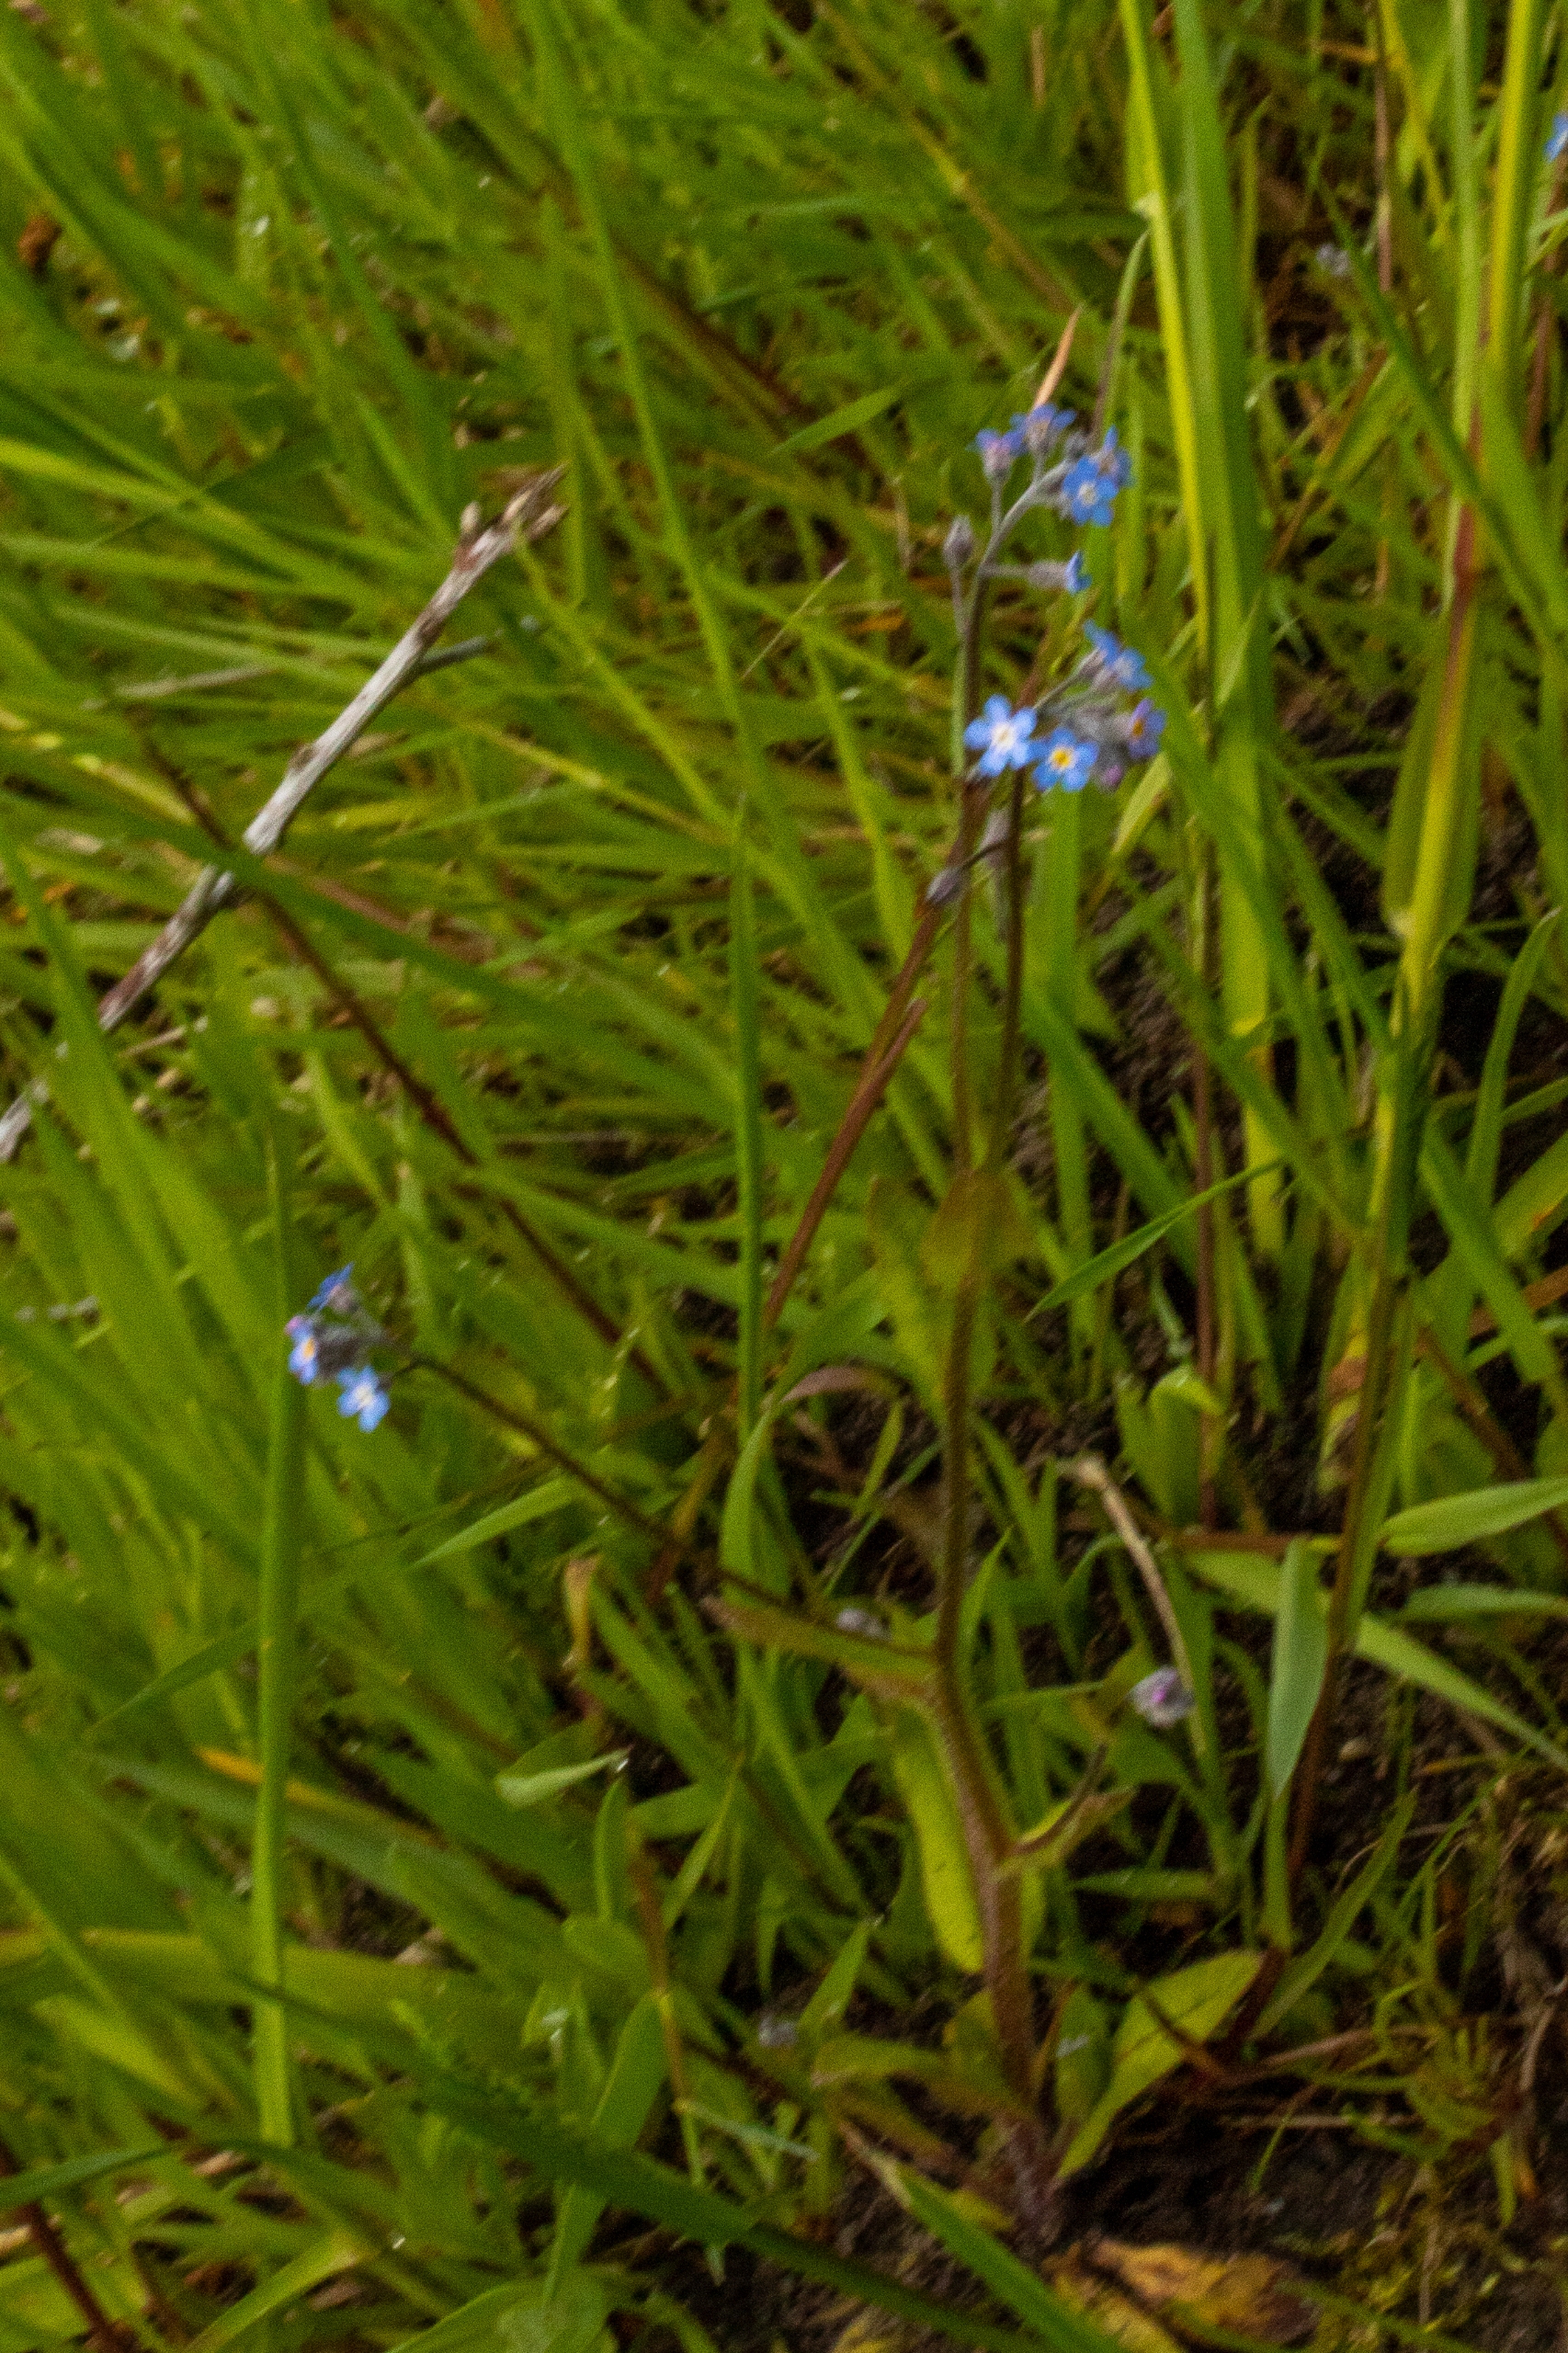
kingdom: Plantae
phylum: Tracheophyta
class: Magnoliopsida
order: Boraginales
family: Boraginaceae
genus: Myosotis
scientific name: Myosotis arvensis
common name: Mark-forglemmigej
